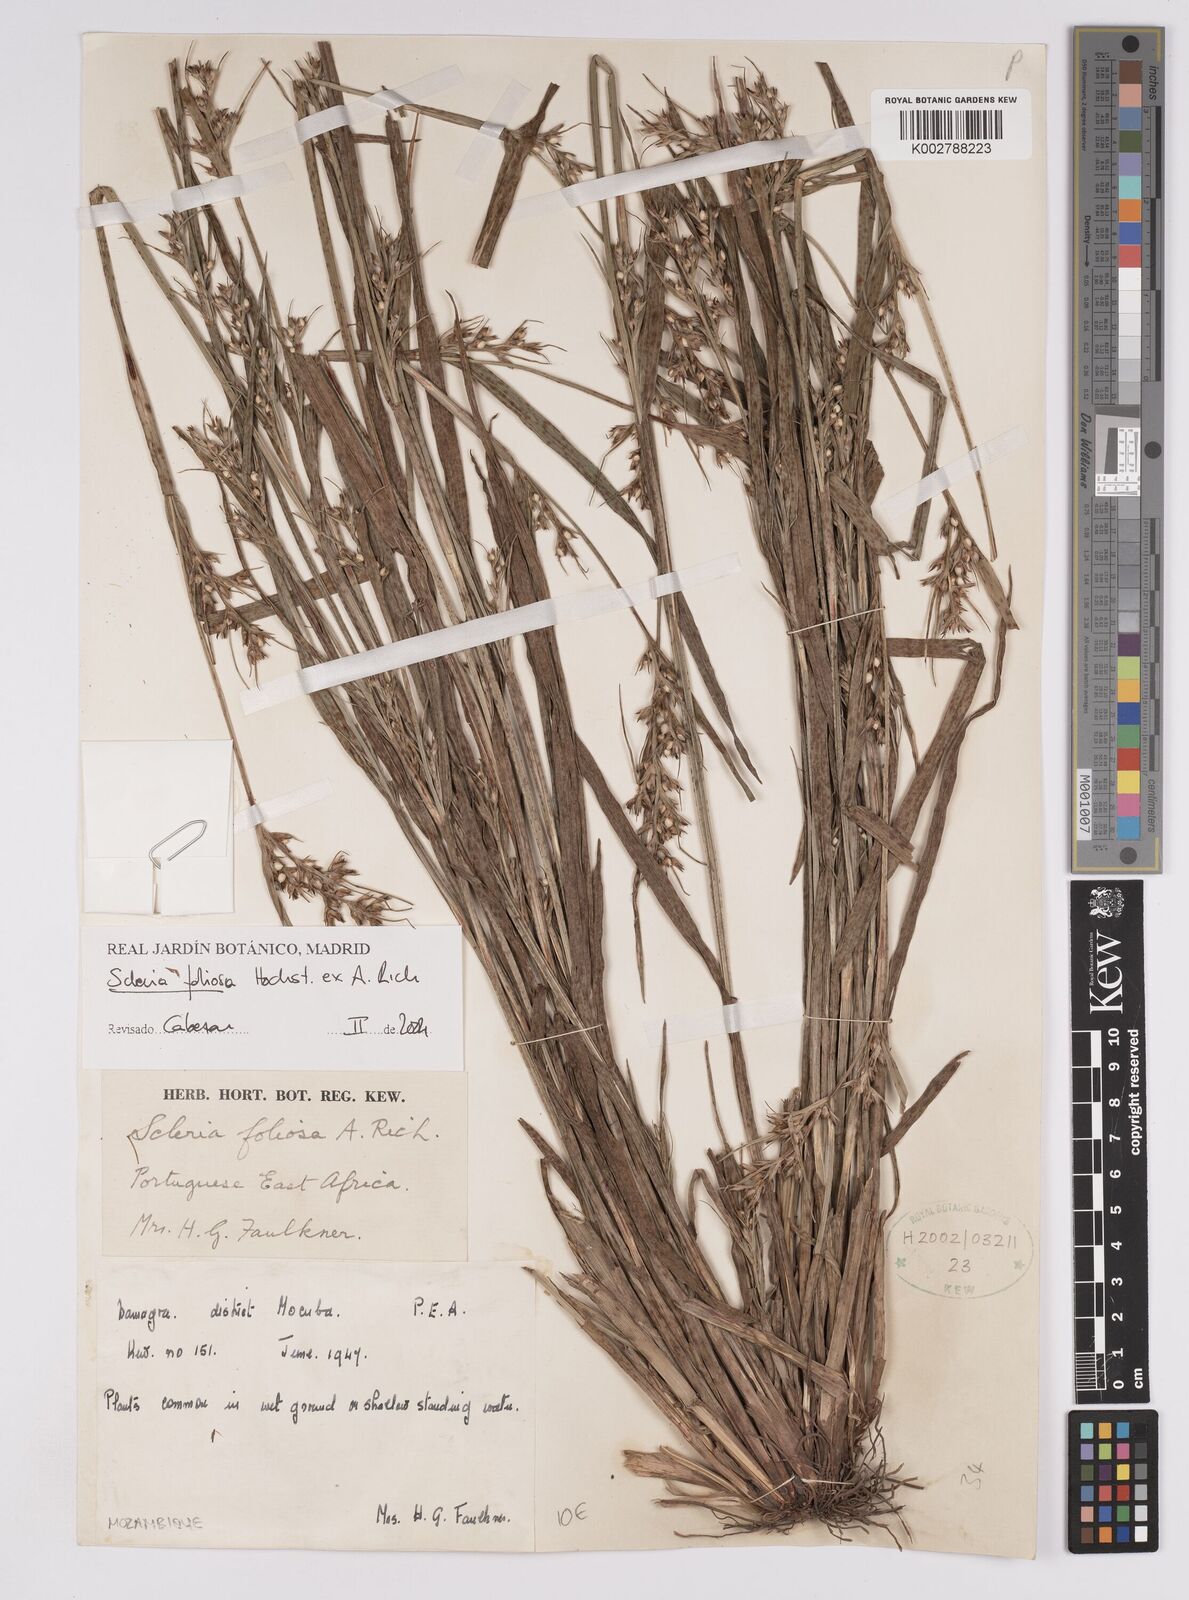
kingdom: Plantae
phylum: Tracheophyta
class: Liliopsida
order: Poales
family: Cyperaceae
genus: Scleria
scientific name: Scleria foliosa
